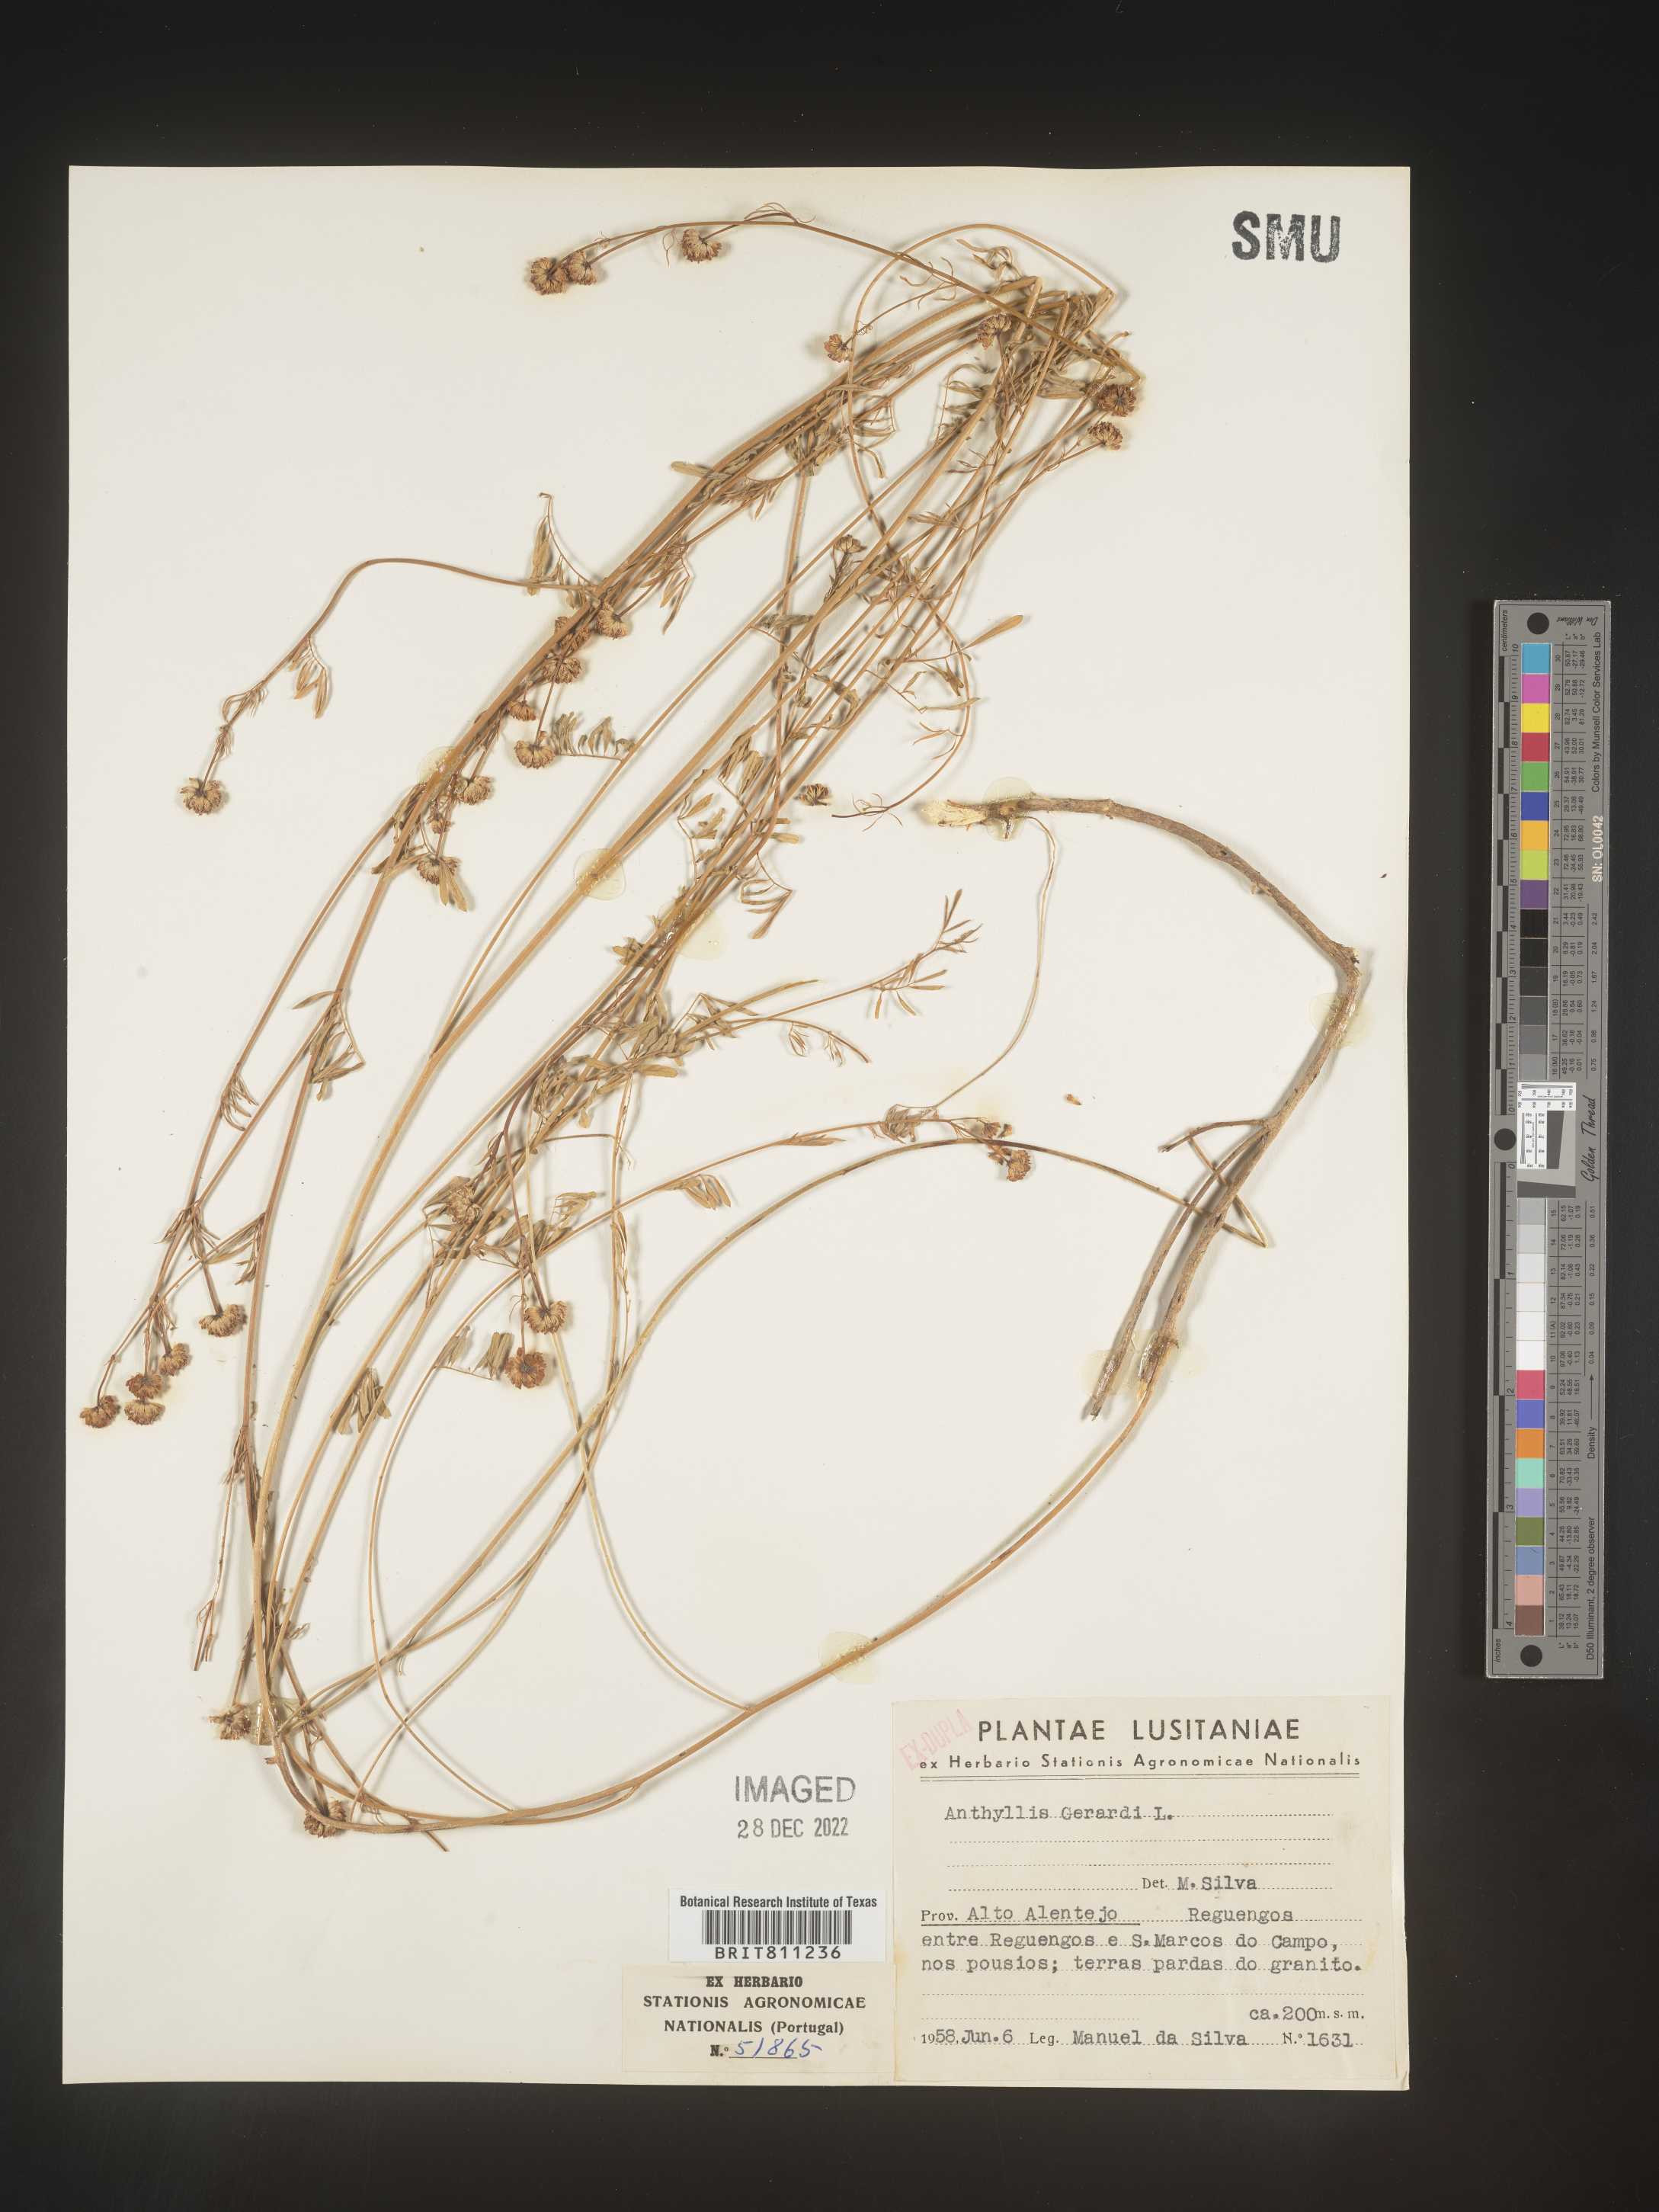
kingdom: Plantae
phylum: Tracheophyta
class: Magnoliopsida
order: Fabales
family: Fabaceae
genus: Anthyllis
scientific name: Anthyllis
